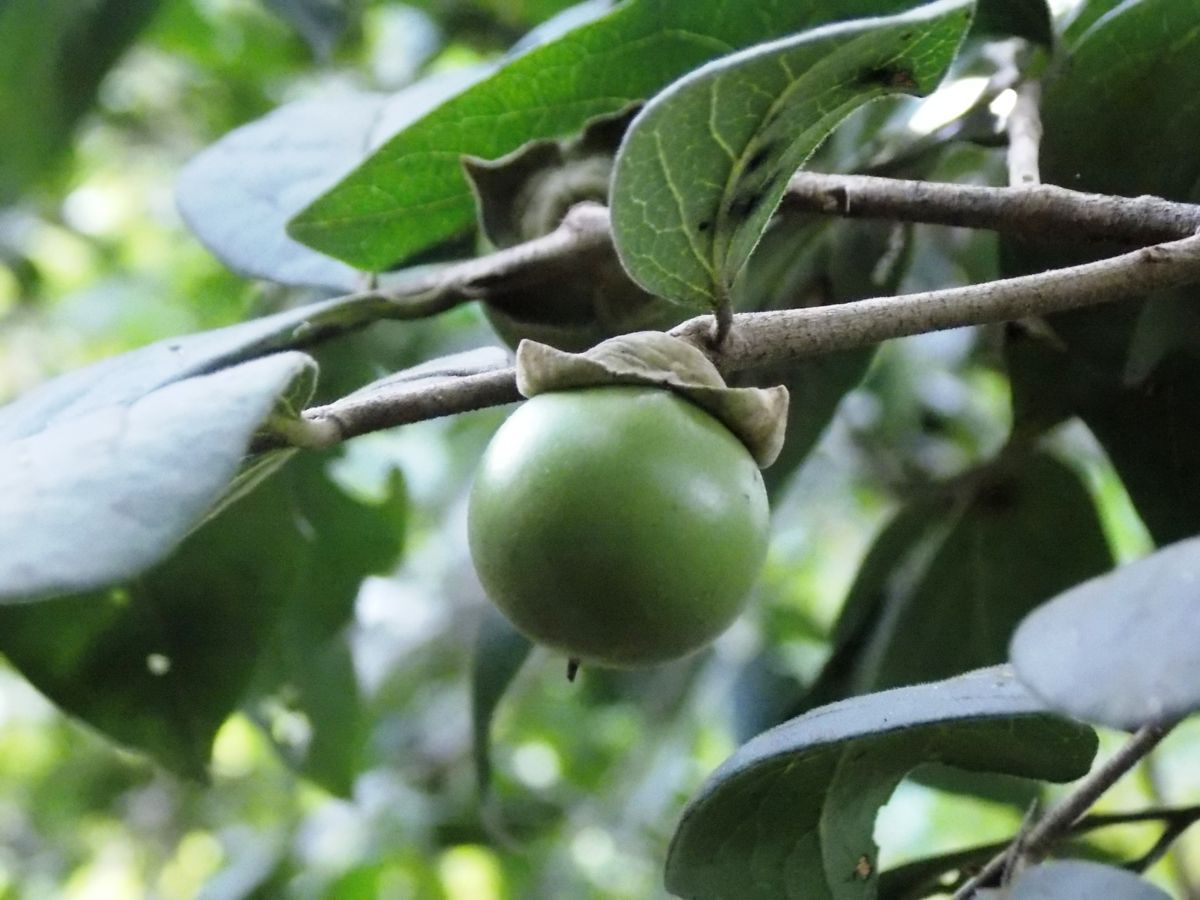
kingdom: Plantae
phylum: Tracheophyta
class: Magnoliopsida
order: Ericales
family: Ebenaceae
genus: Diospyros
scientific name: Diospyros salicifolia
